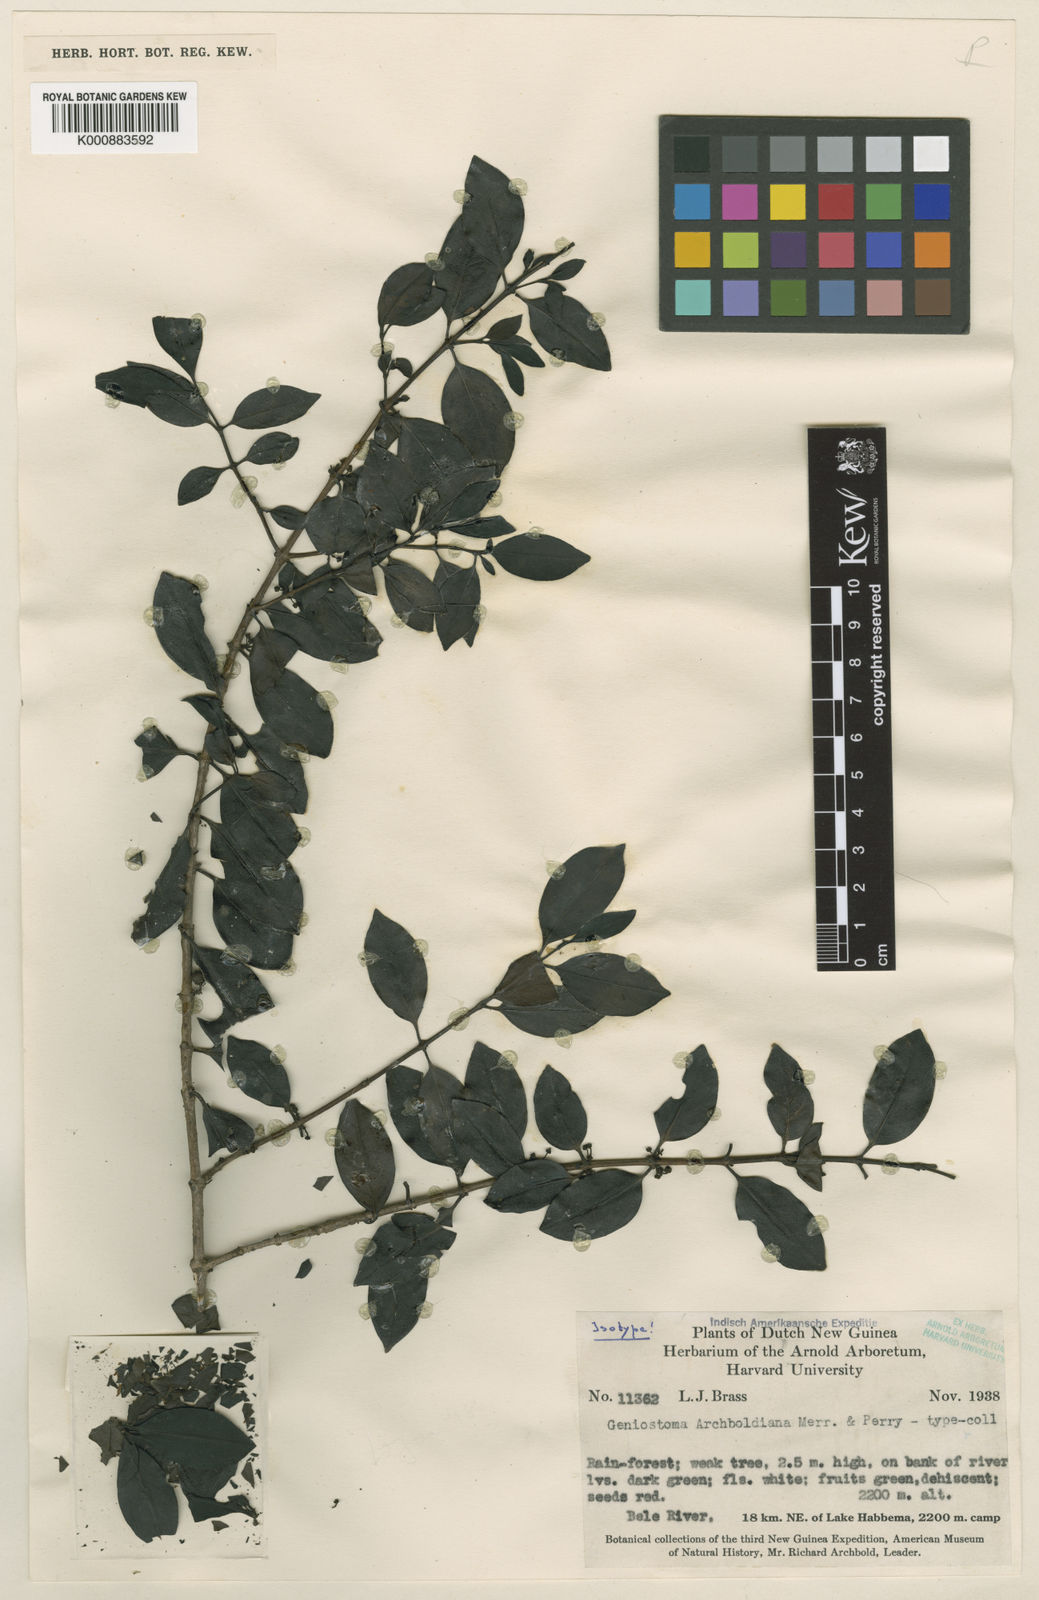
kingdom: Plantae
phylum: Tracheophyta
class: Magnoliopsida
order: Gentianales
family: Loganiaceae
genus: Geniostoma
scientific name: Geniostoma antherotrichum
